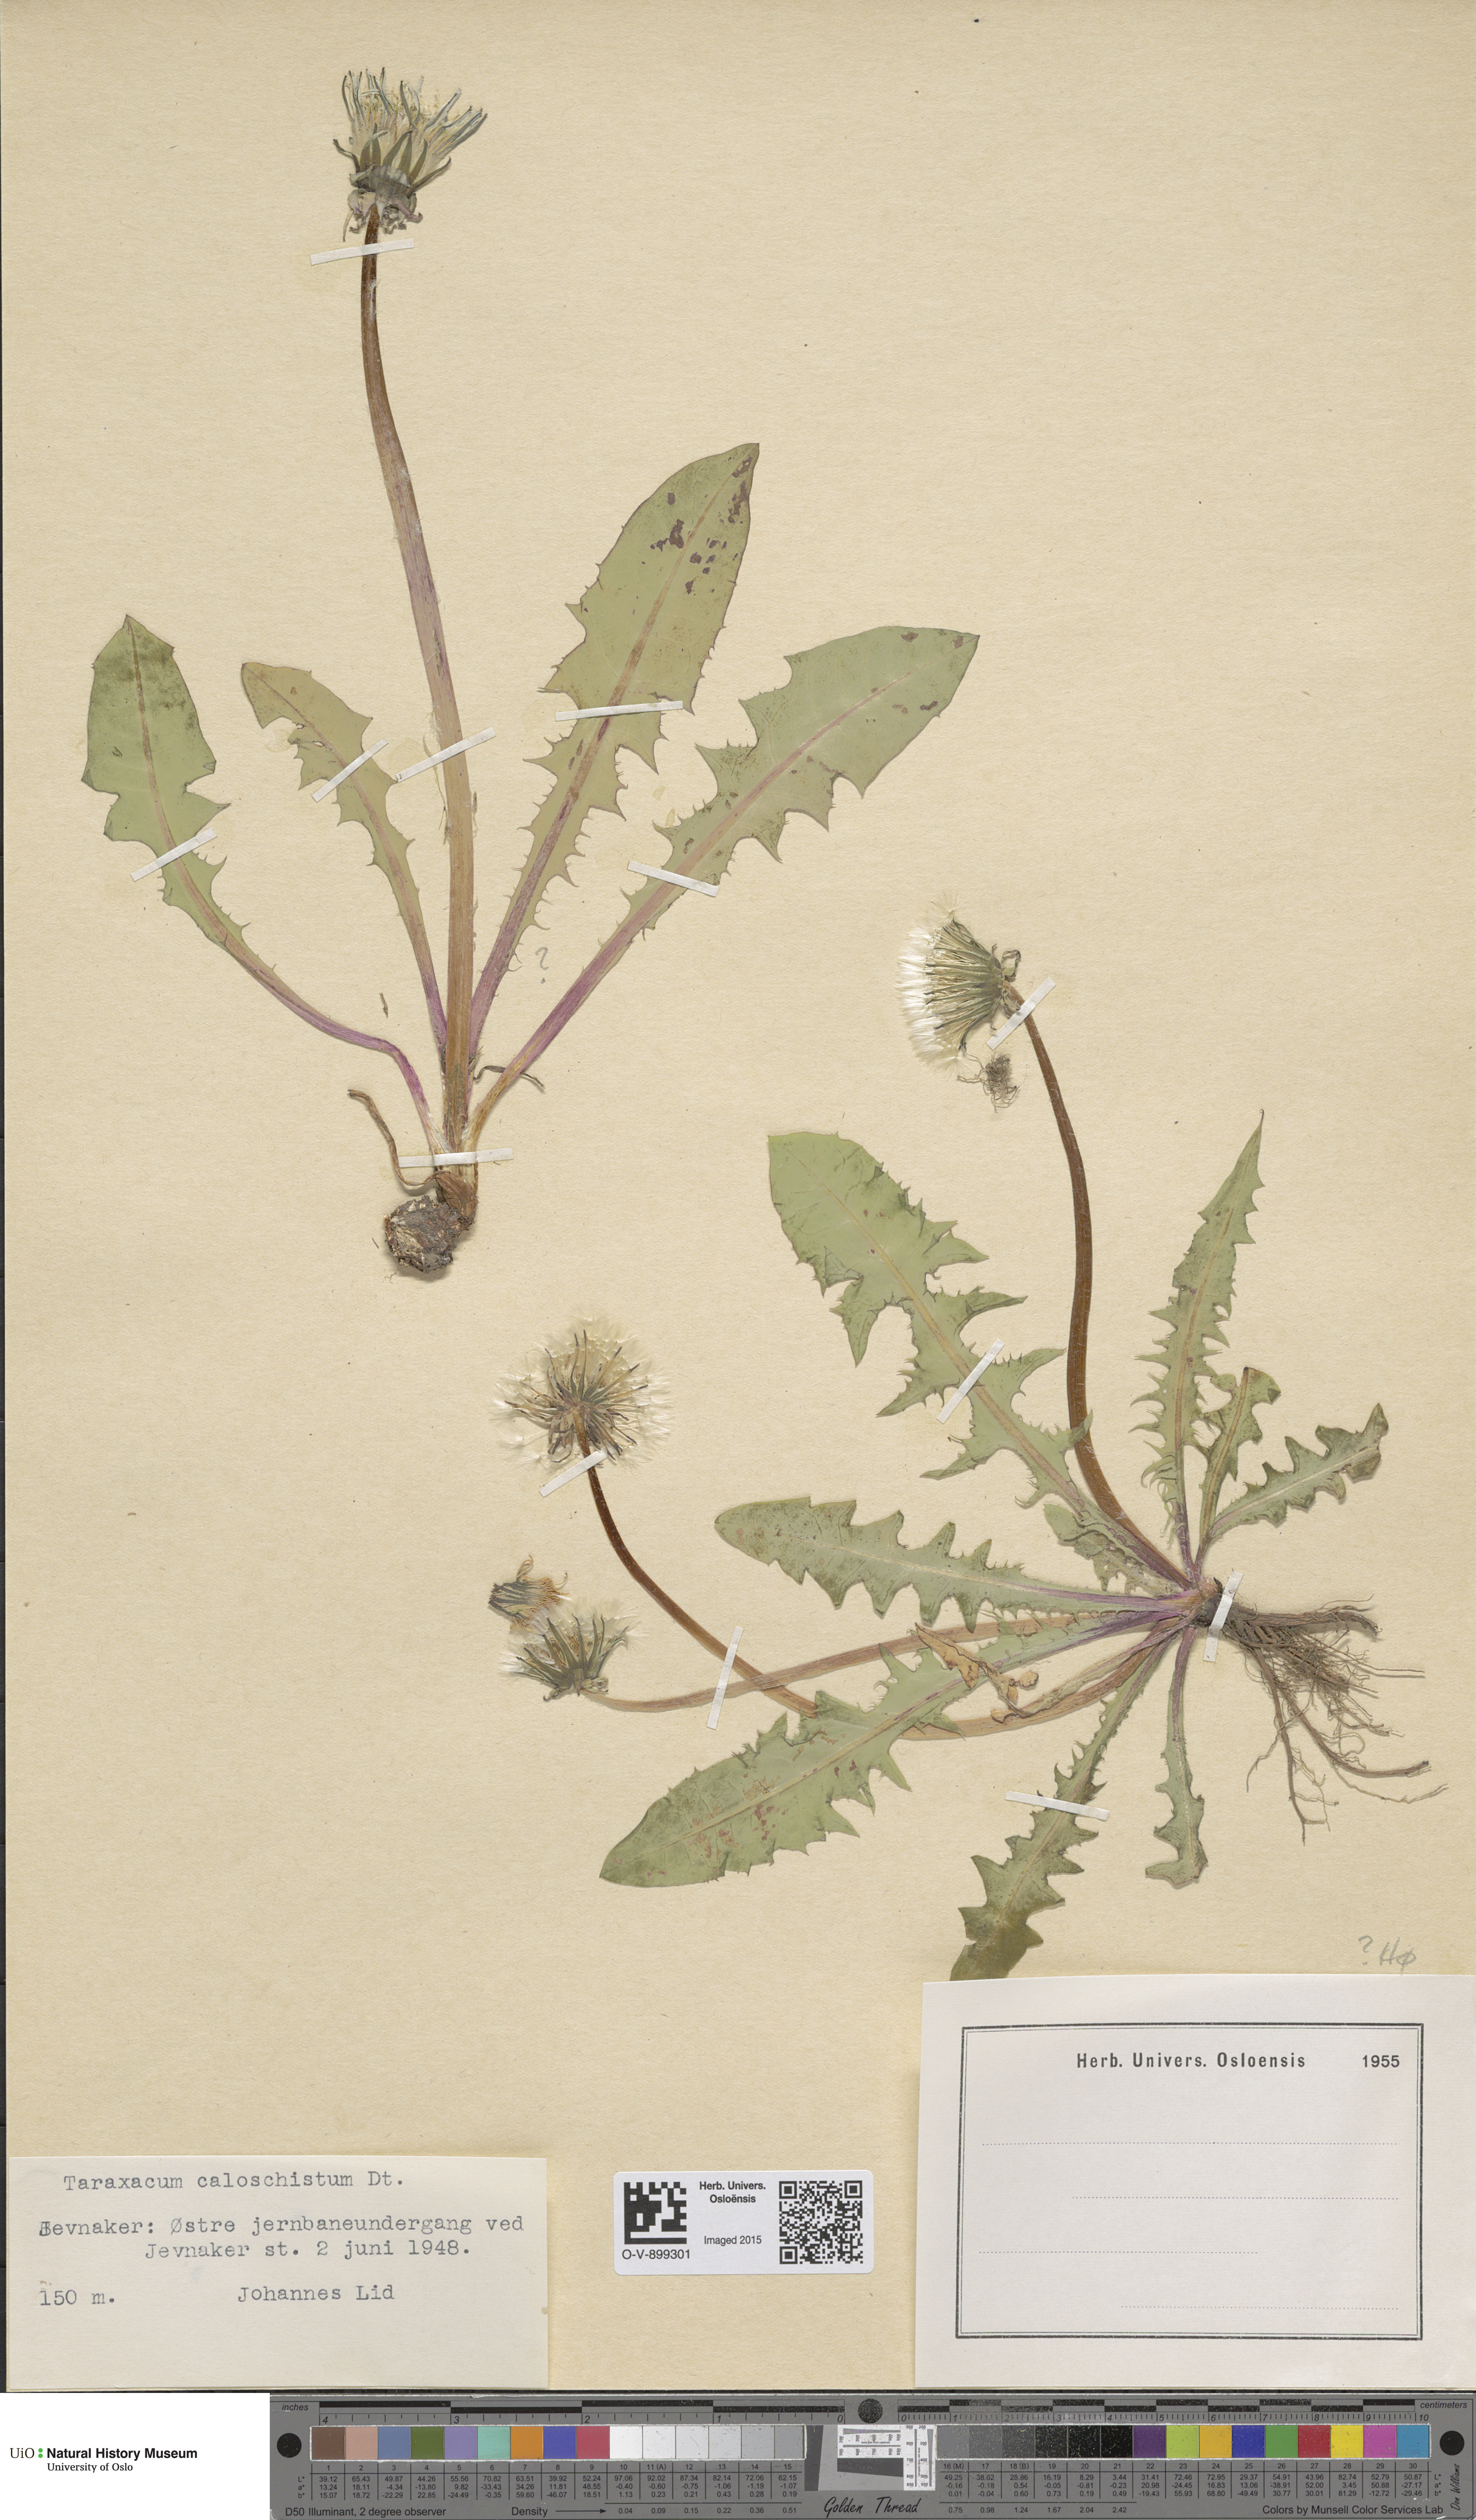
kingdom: Plantae
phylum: Tracheophyta
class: Magnoliopsida
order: Asterales
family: Asteraceae
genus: Taraxacum
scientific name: Taraxacum caloschistum
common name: Brilliant-stalked dandelion
